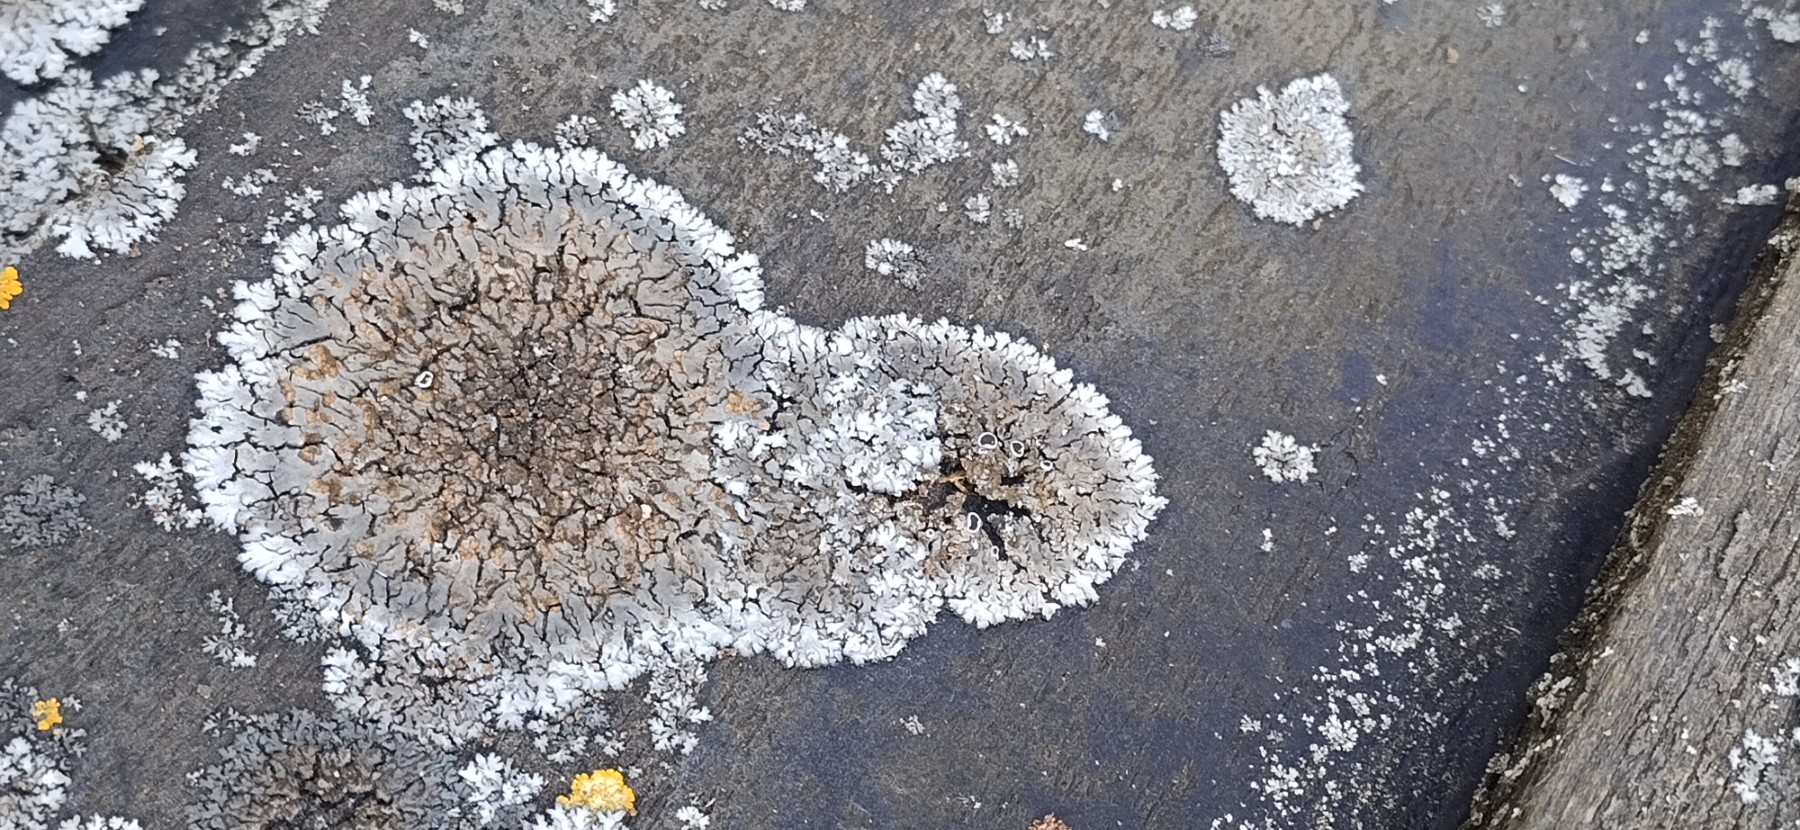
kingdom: Fungi
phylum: Ascomycota
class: Lecanoromycetes
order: Caliciales
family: Physciaceae
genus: Phaeophyscia
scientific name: Phaeophyscia endophoenicea
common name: skygge-rosetlav
